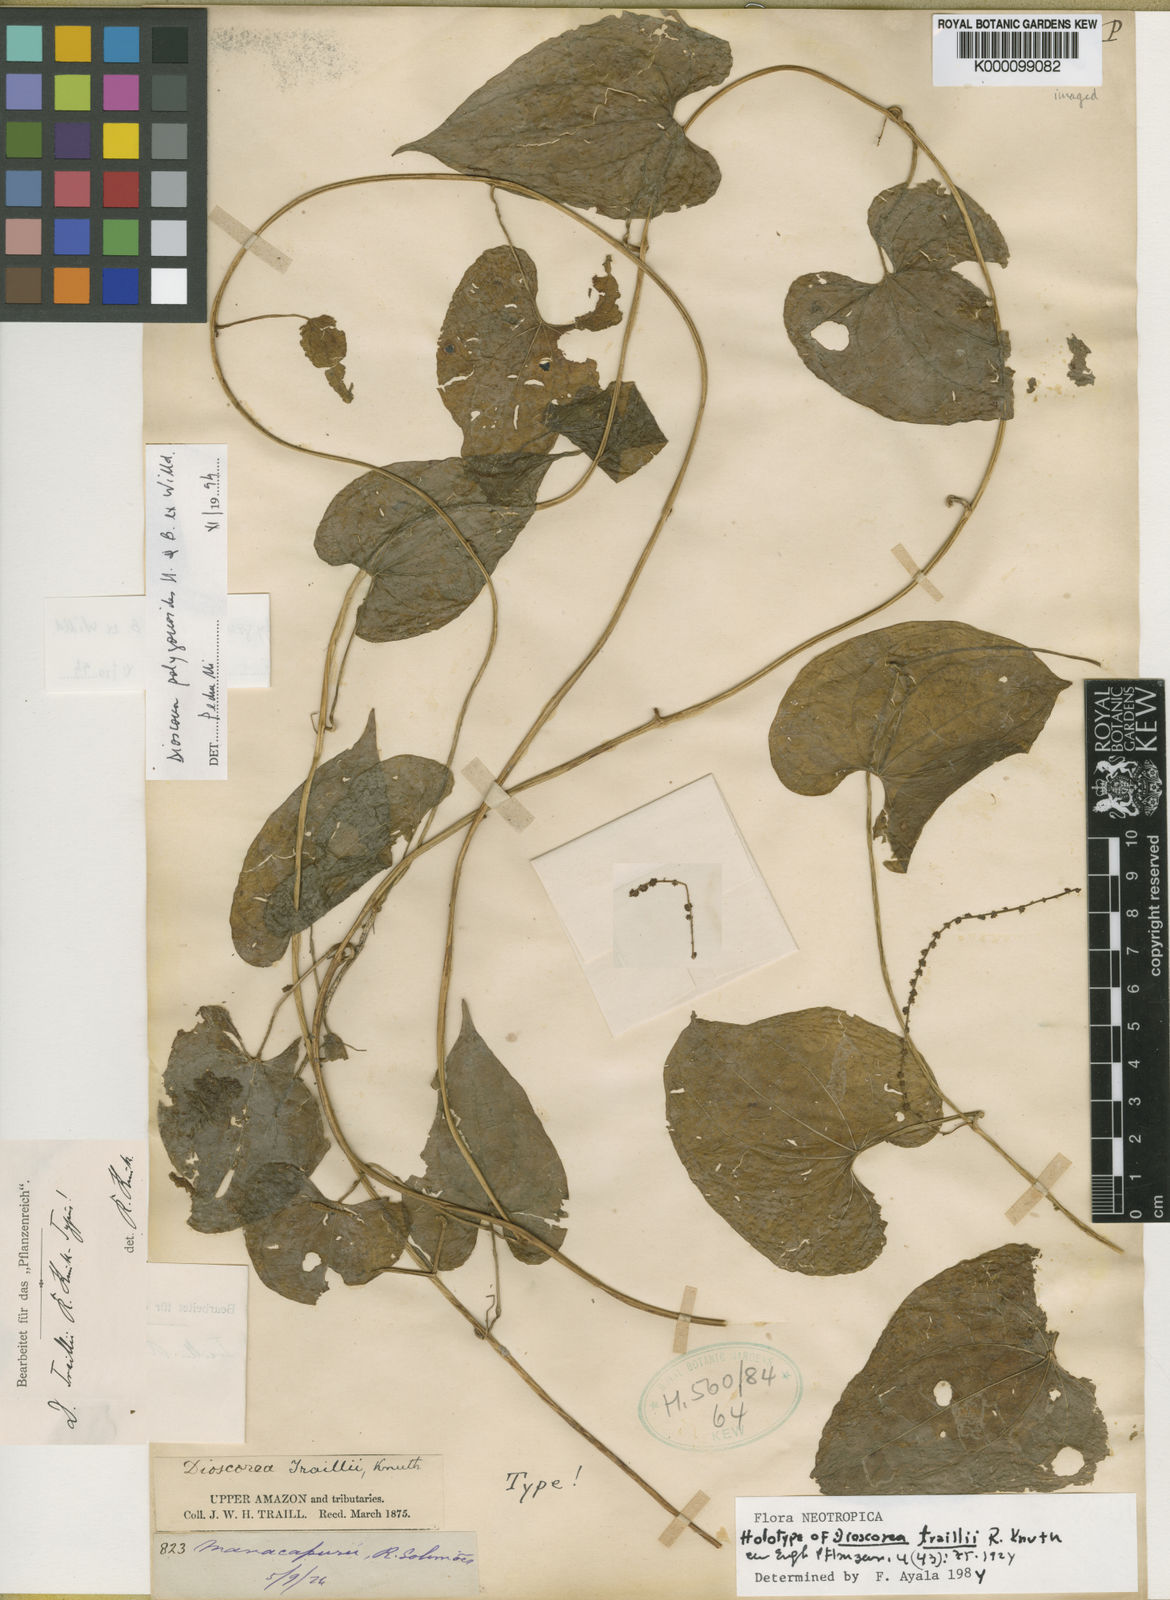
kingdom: Plantae
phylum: Tracheophyta
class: Liliopsida
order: Dioscoreales
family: Dioscoreaceae
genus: Dioscorea
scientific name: Dioscorea traillii
